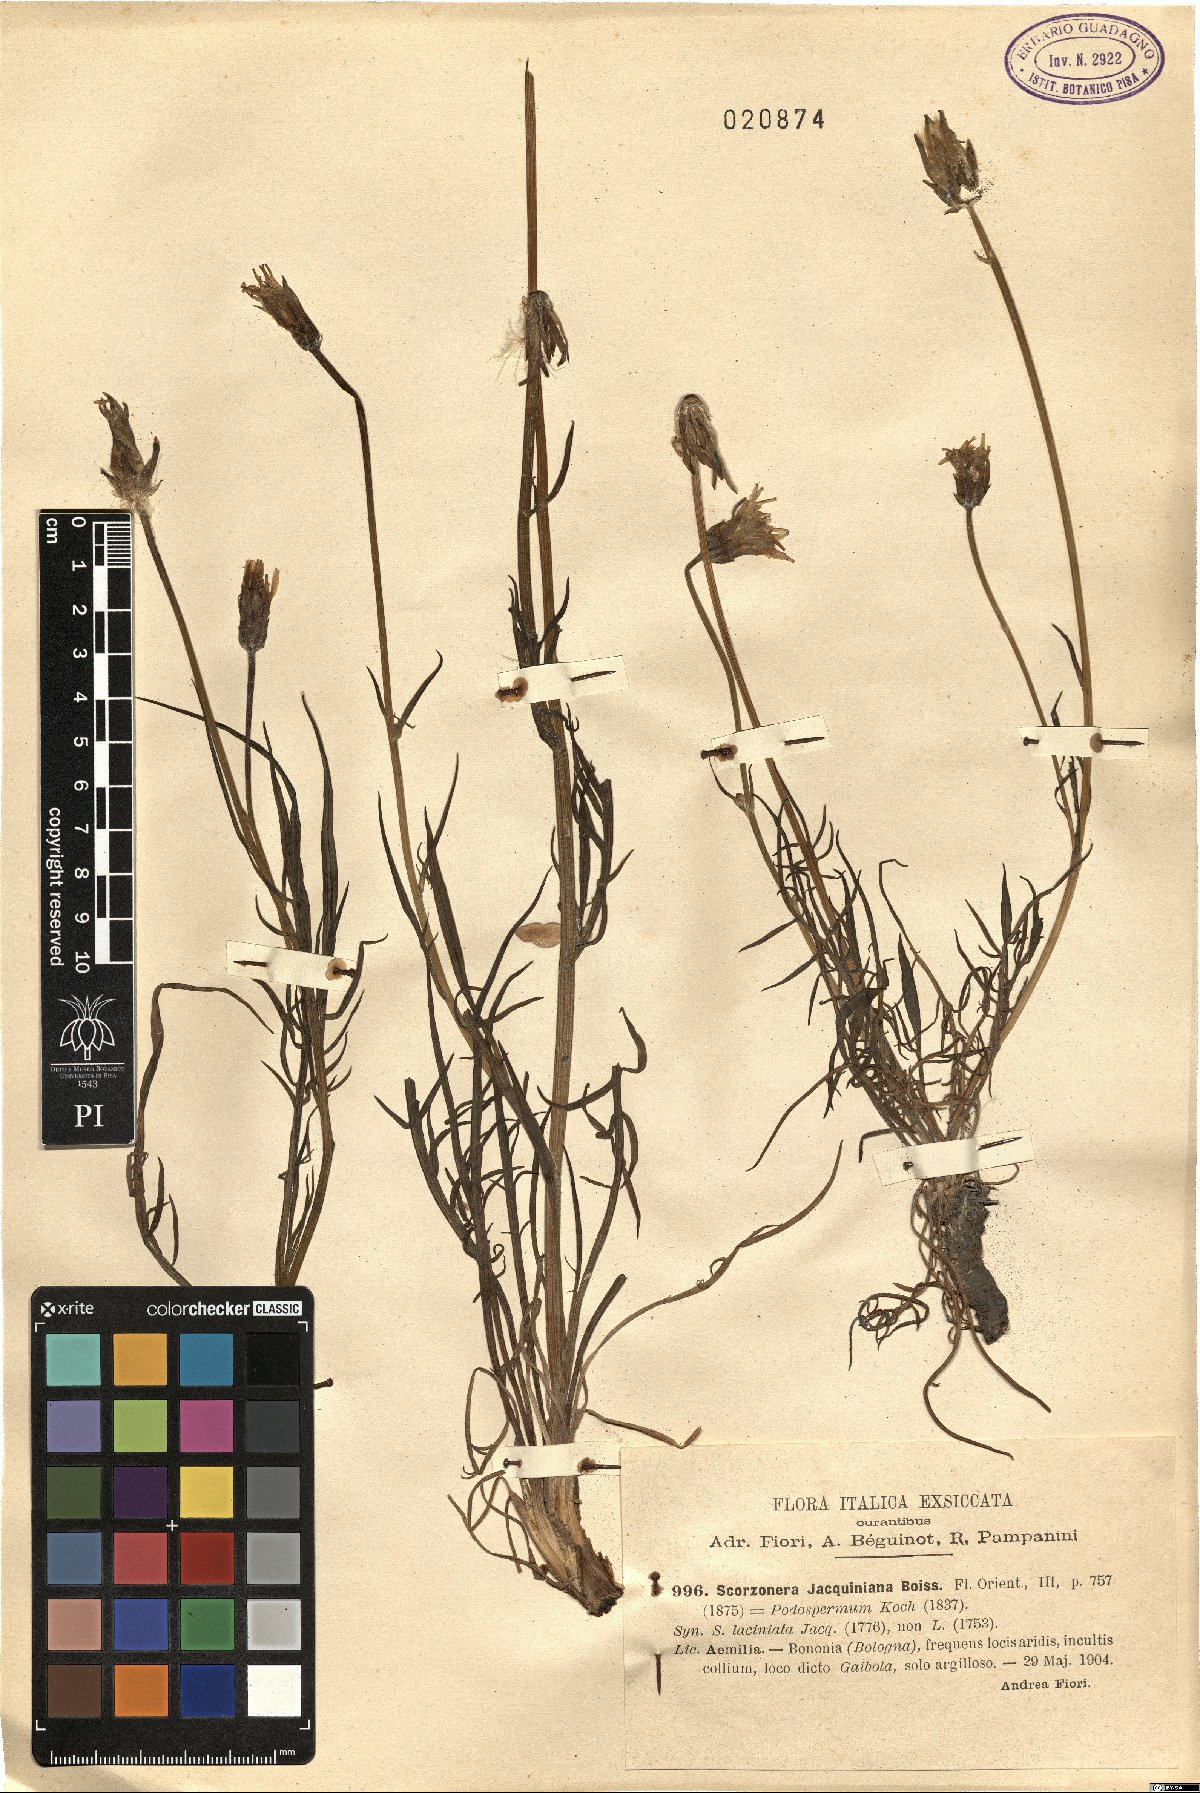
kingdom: Plantae
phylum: Tracheophyta
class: Magnoliopsida
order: Asterales
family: Asteraceae
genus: Scorzonera
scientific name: Scorzonera cana
